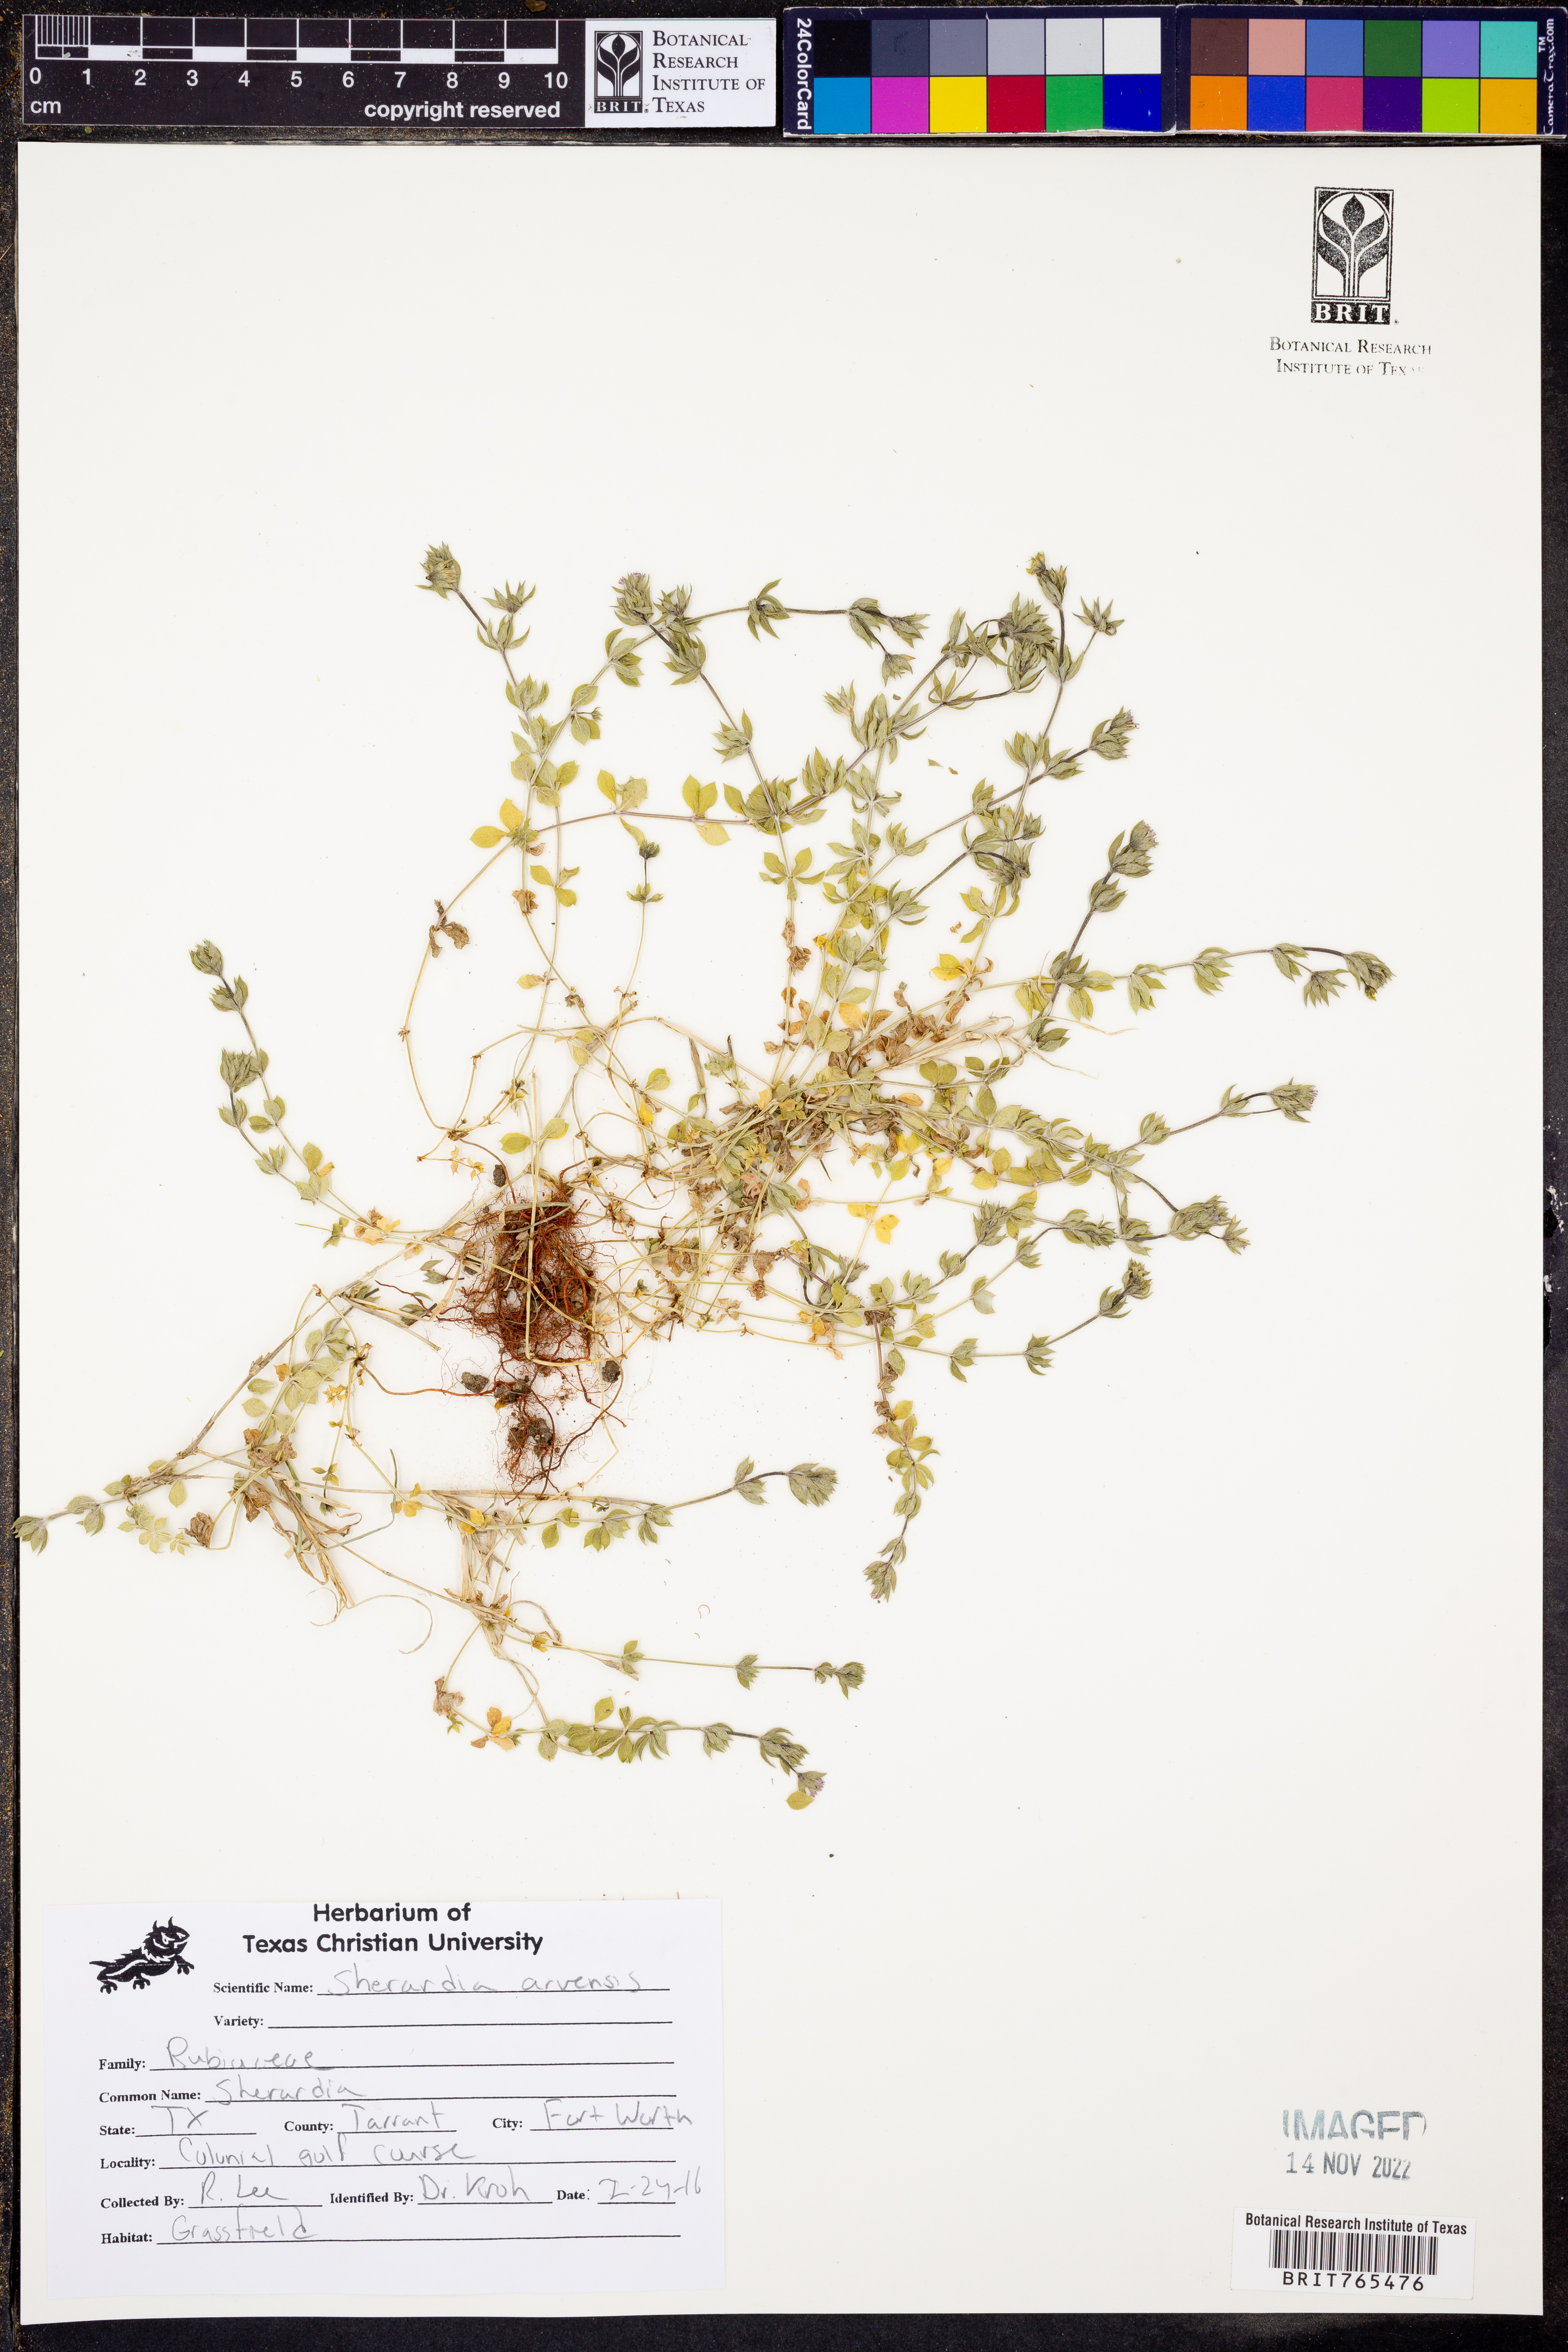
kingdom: Plantae
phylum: Tracheophyta
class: Magnoliopsida
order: Gentianales
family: Rubiaceae
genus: Sherardia
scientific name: Sherardia arvensis
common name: Field madder
